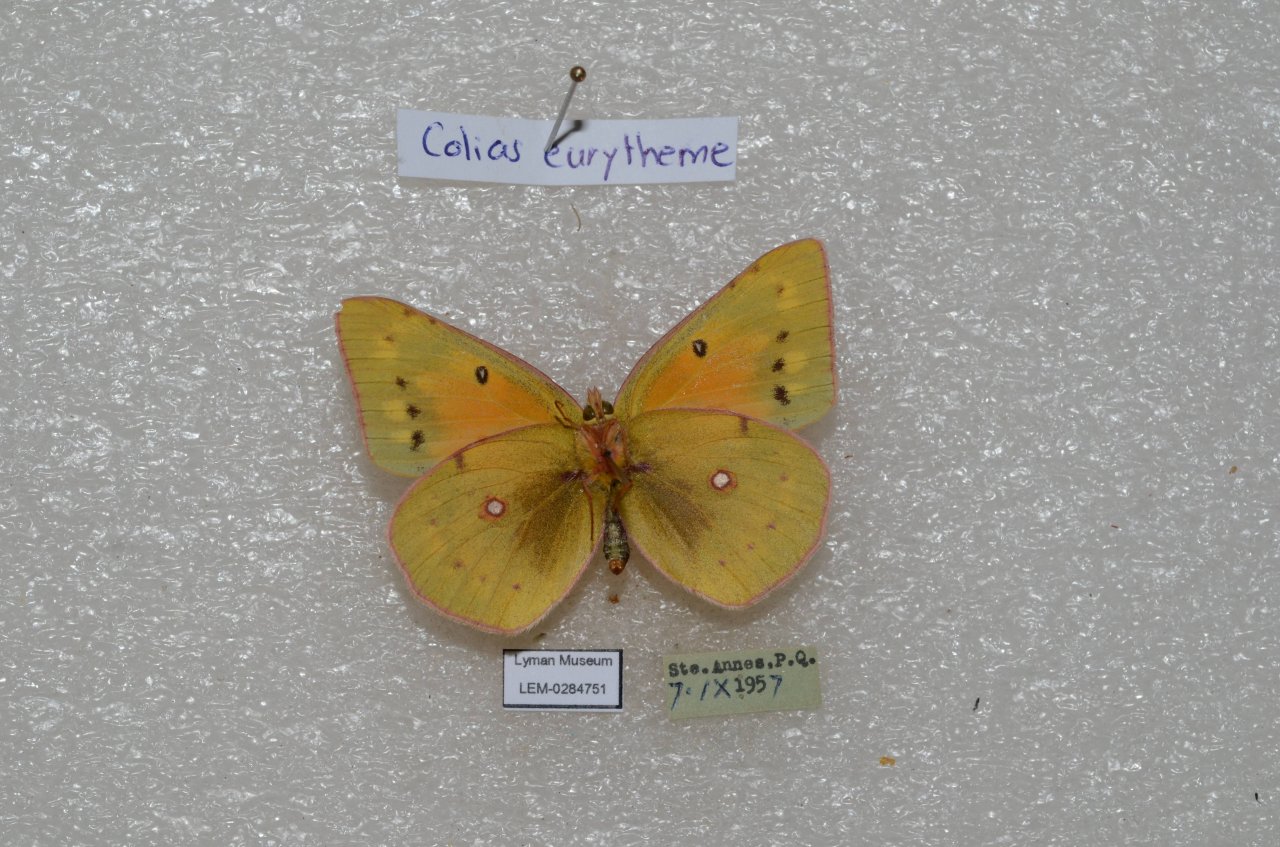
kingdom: Animalia
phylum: Arthropoda
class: Insecta
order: Lepidoptera
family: Pieridae
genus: Colias
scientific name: Colias eurytheme
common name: Orange Sulphur
